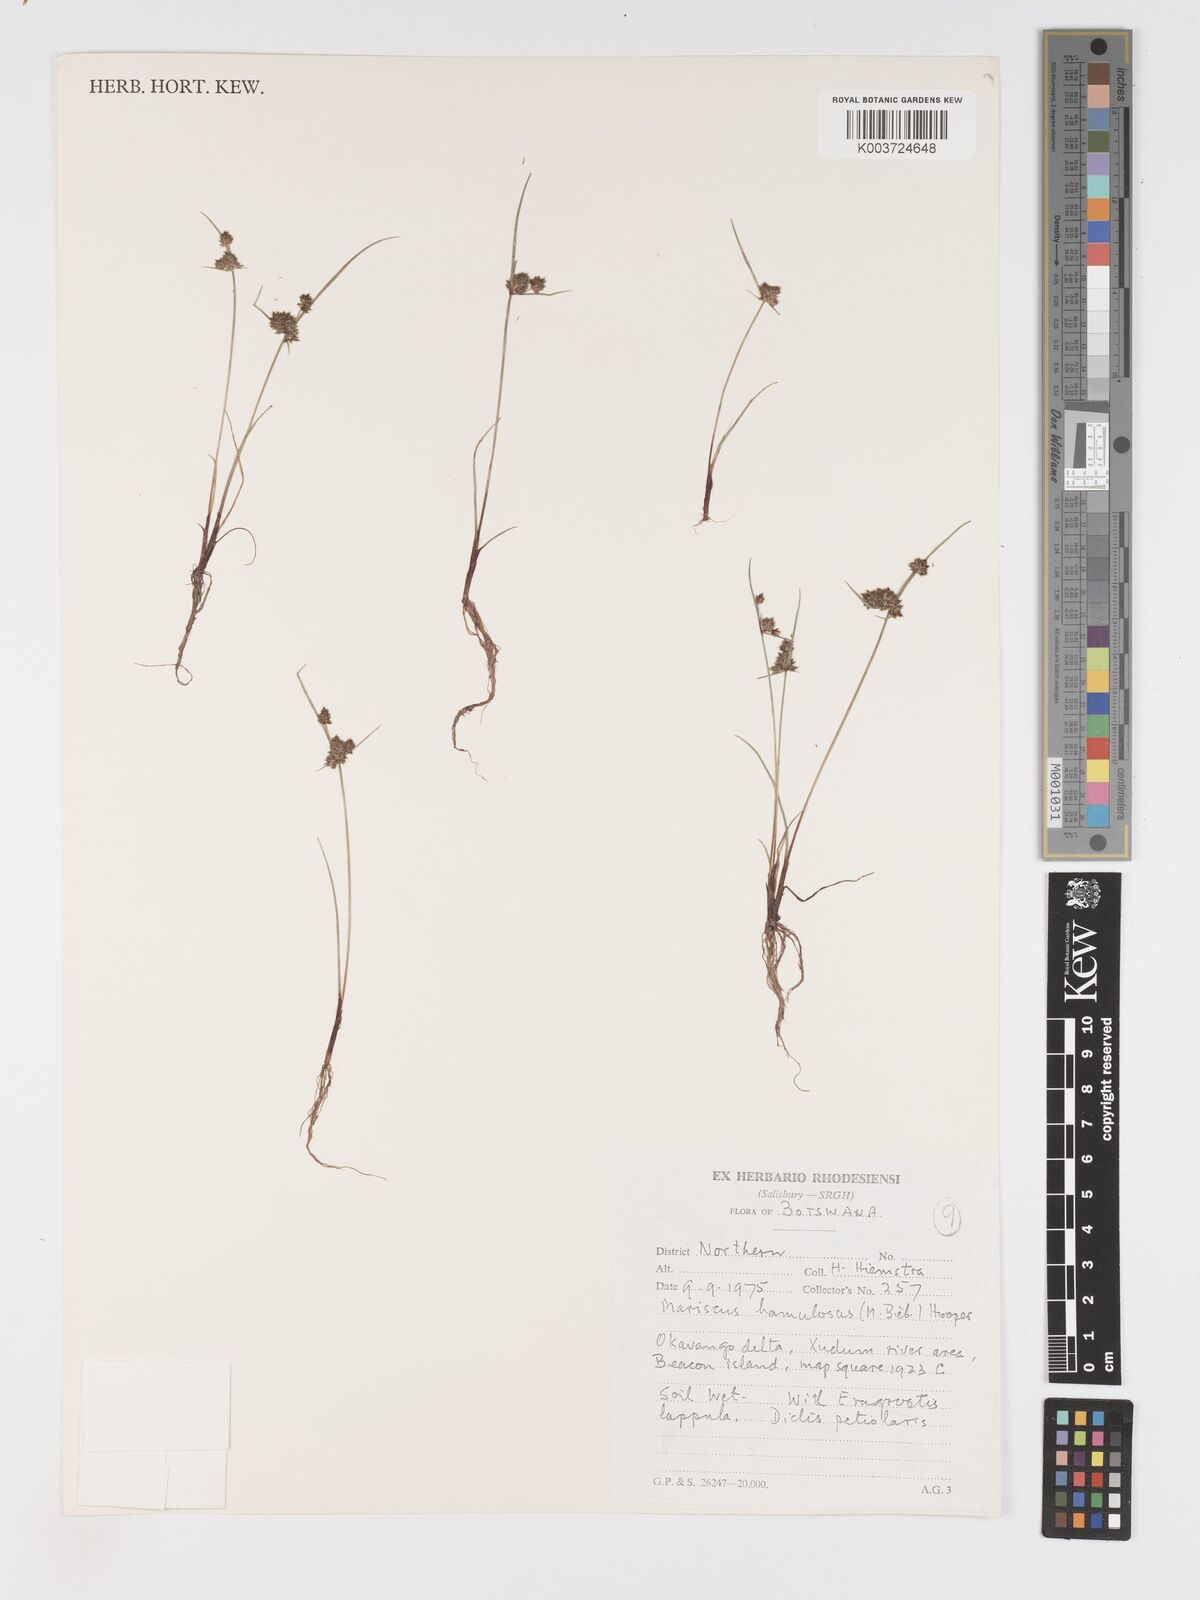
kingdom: Plantae
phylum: Tracheophyta
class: Liliopsida
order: Poales
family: Cyperaceae
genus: Cyperus
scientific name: Cyperus hamulosus
